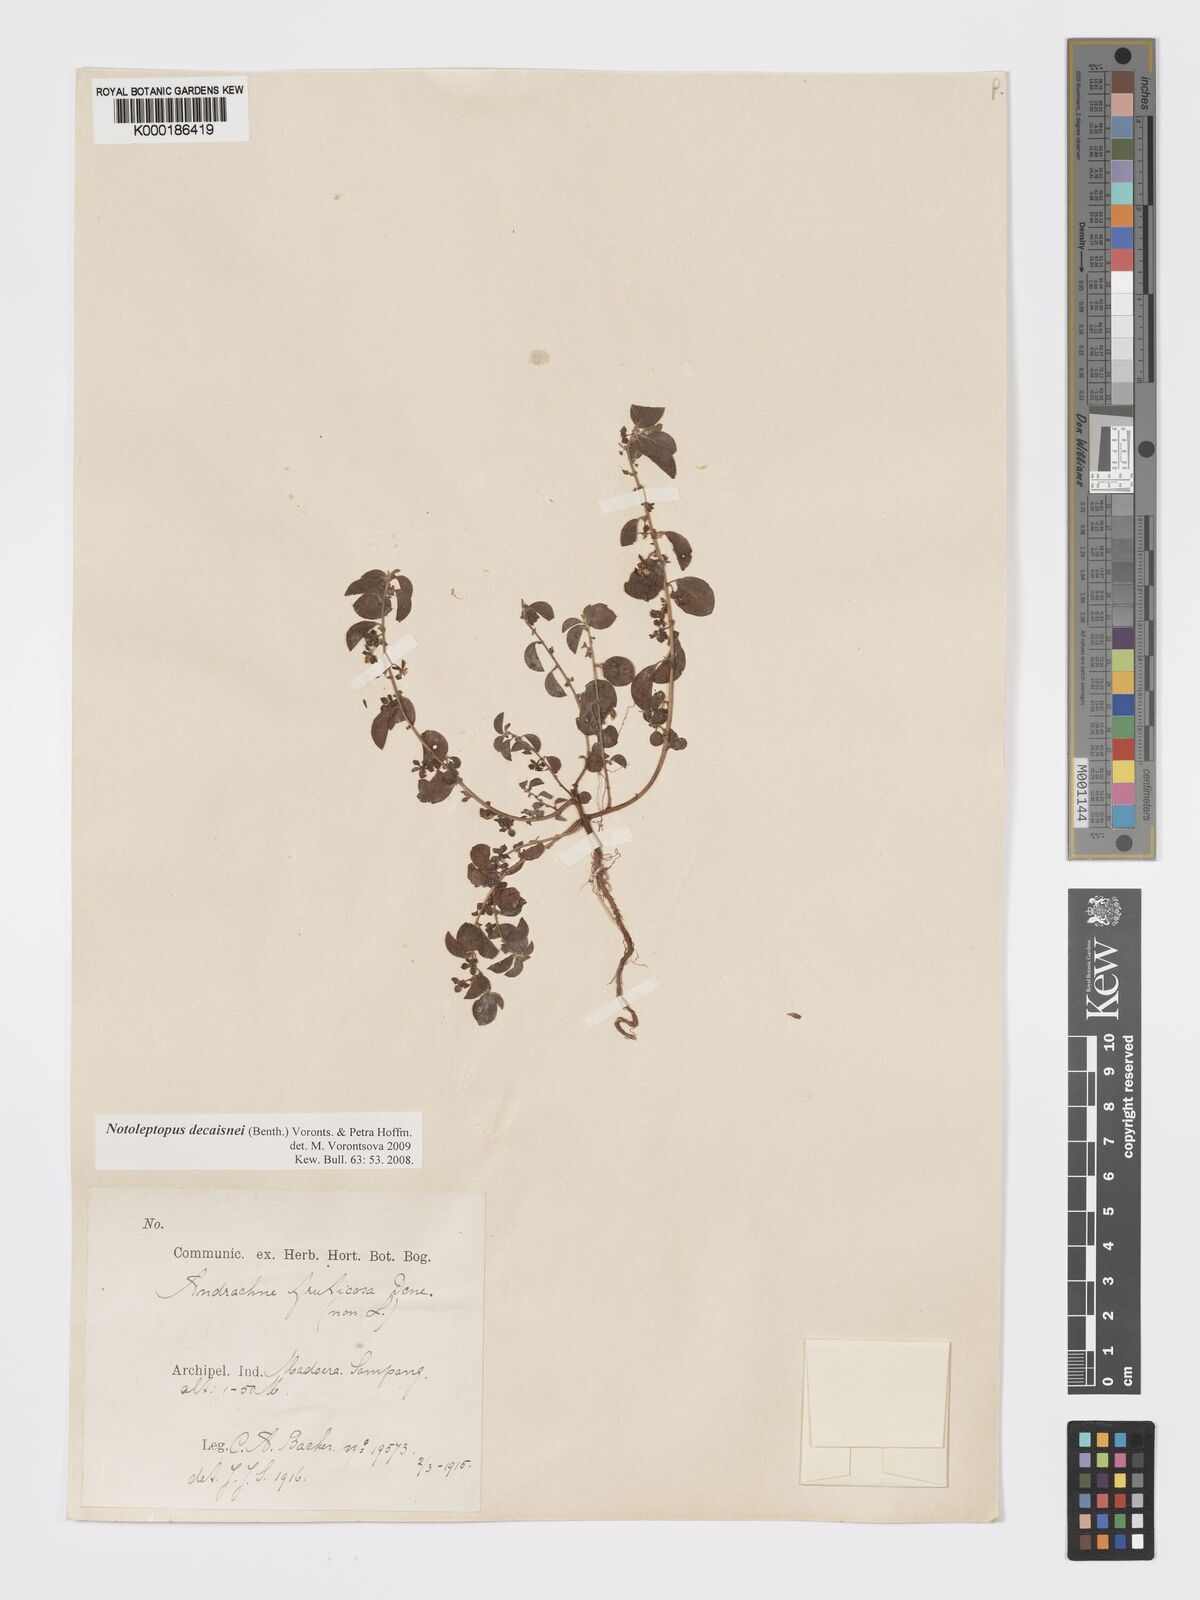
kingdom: Plantae
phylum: Tracheophyta
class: Magnoliopsida
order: Malpighiales
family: Phyllanthaceae
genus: Andrachne
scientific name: Andrachne
